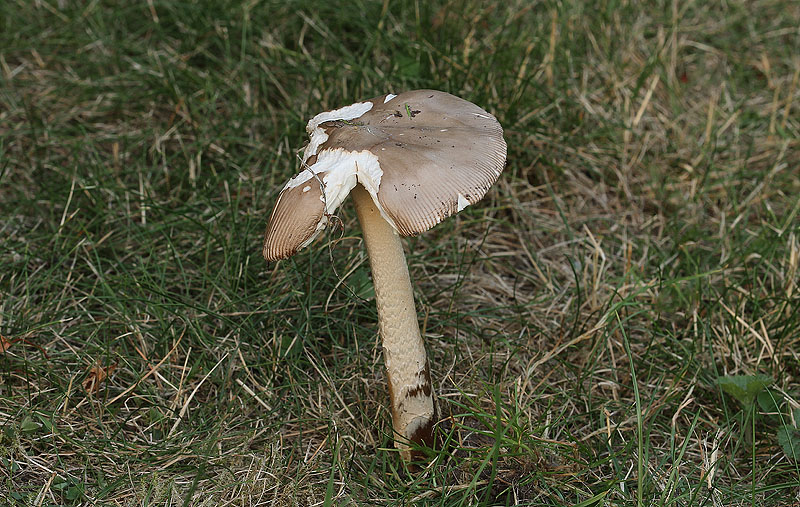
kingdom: Fungi
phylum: Basidiomycota
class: Agaricomycetes
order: Agaricales
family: Amanitaceae
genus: Amanita
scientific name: Amanita lividopallescens
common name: afblegende kam-fluesvamp
